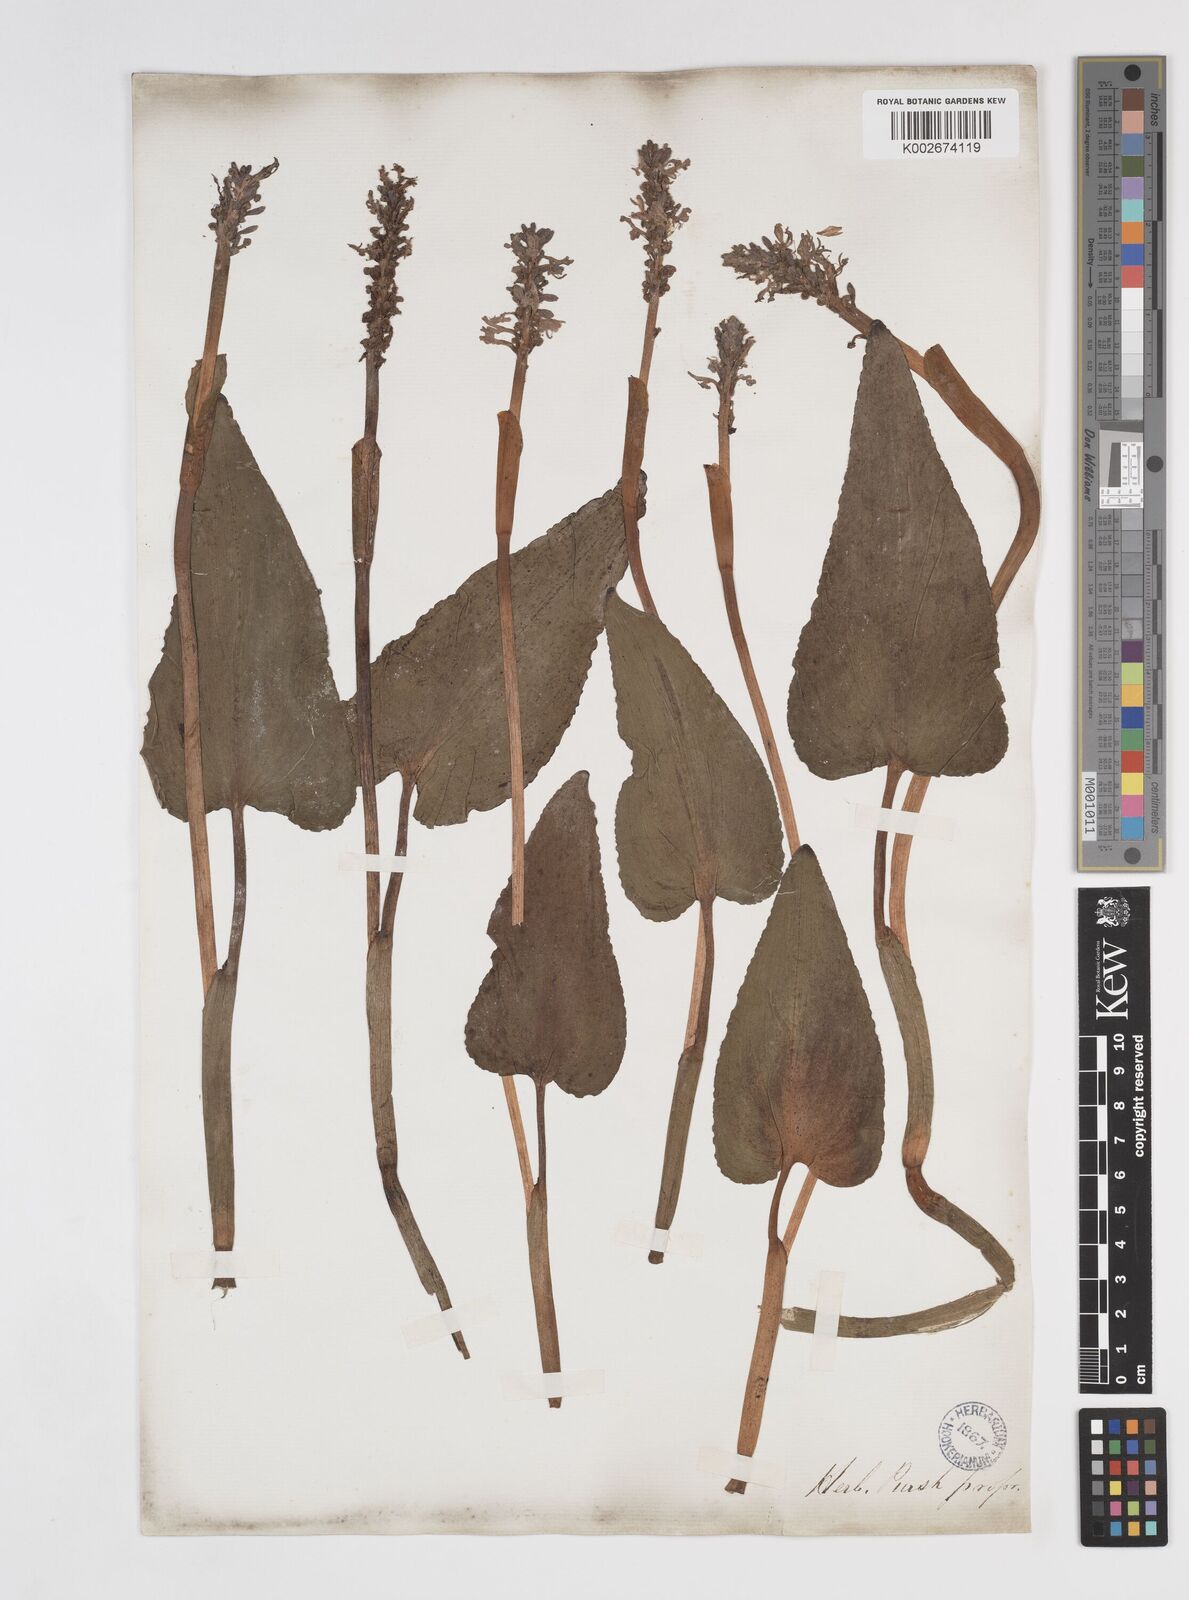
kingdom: Plantae
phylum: Tracheophyta
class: Liliopsida
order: Commelinales
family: Pontederiaceae
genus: Pontederia
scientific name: Pontederia cordata
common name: Pickerelweed
